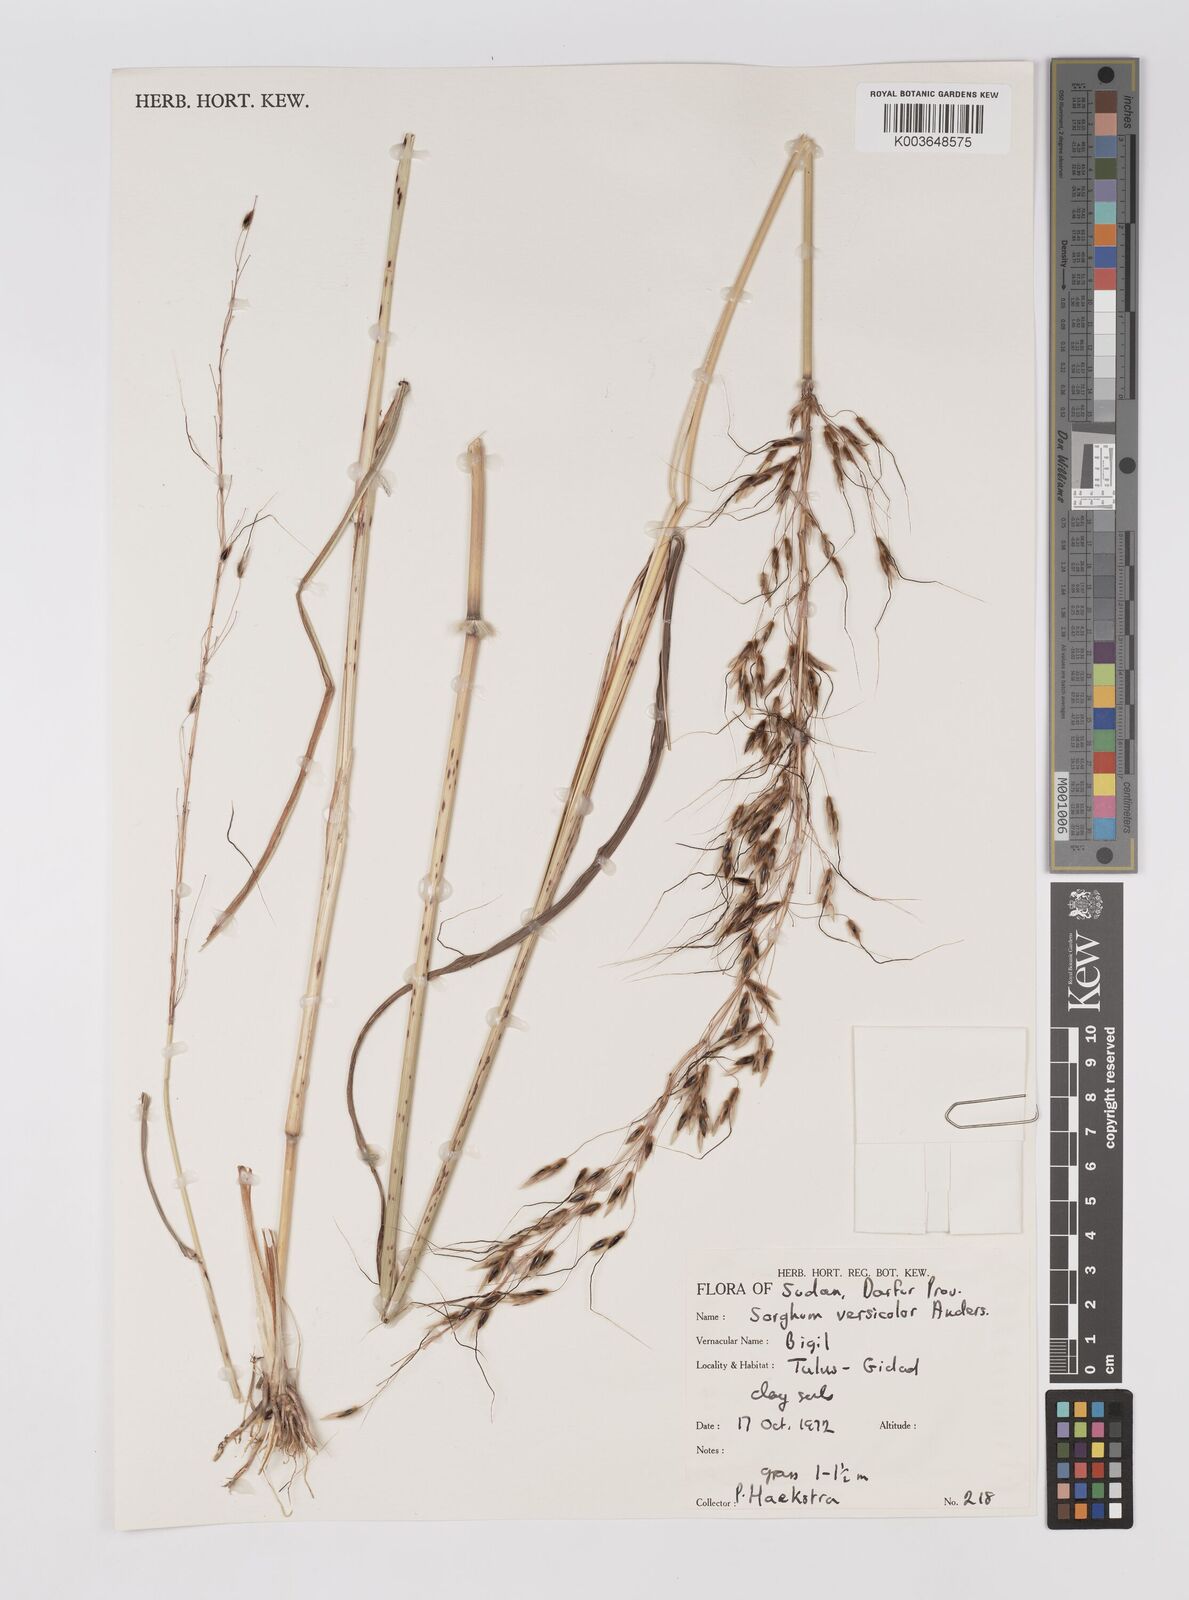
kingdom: Plantae
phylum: Tracheophyta
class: Liliopsida
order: Poales
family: Poaceae
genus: Sarga
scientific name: Sarga purpureosericea
